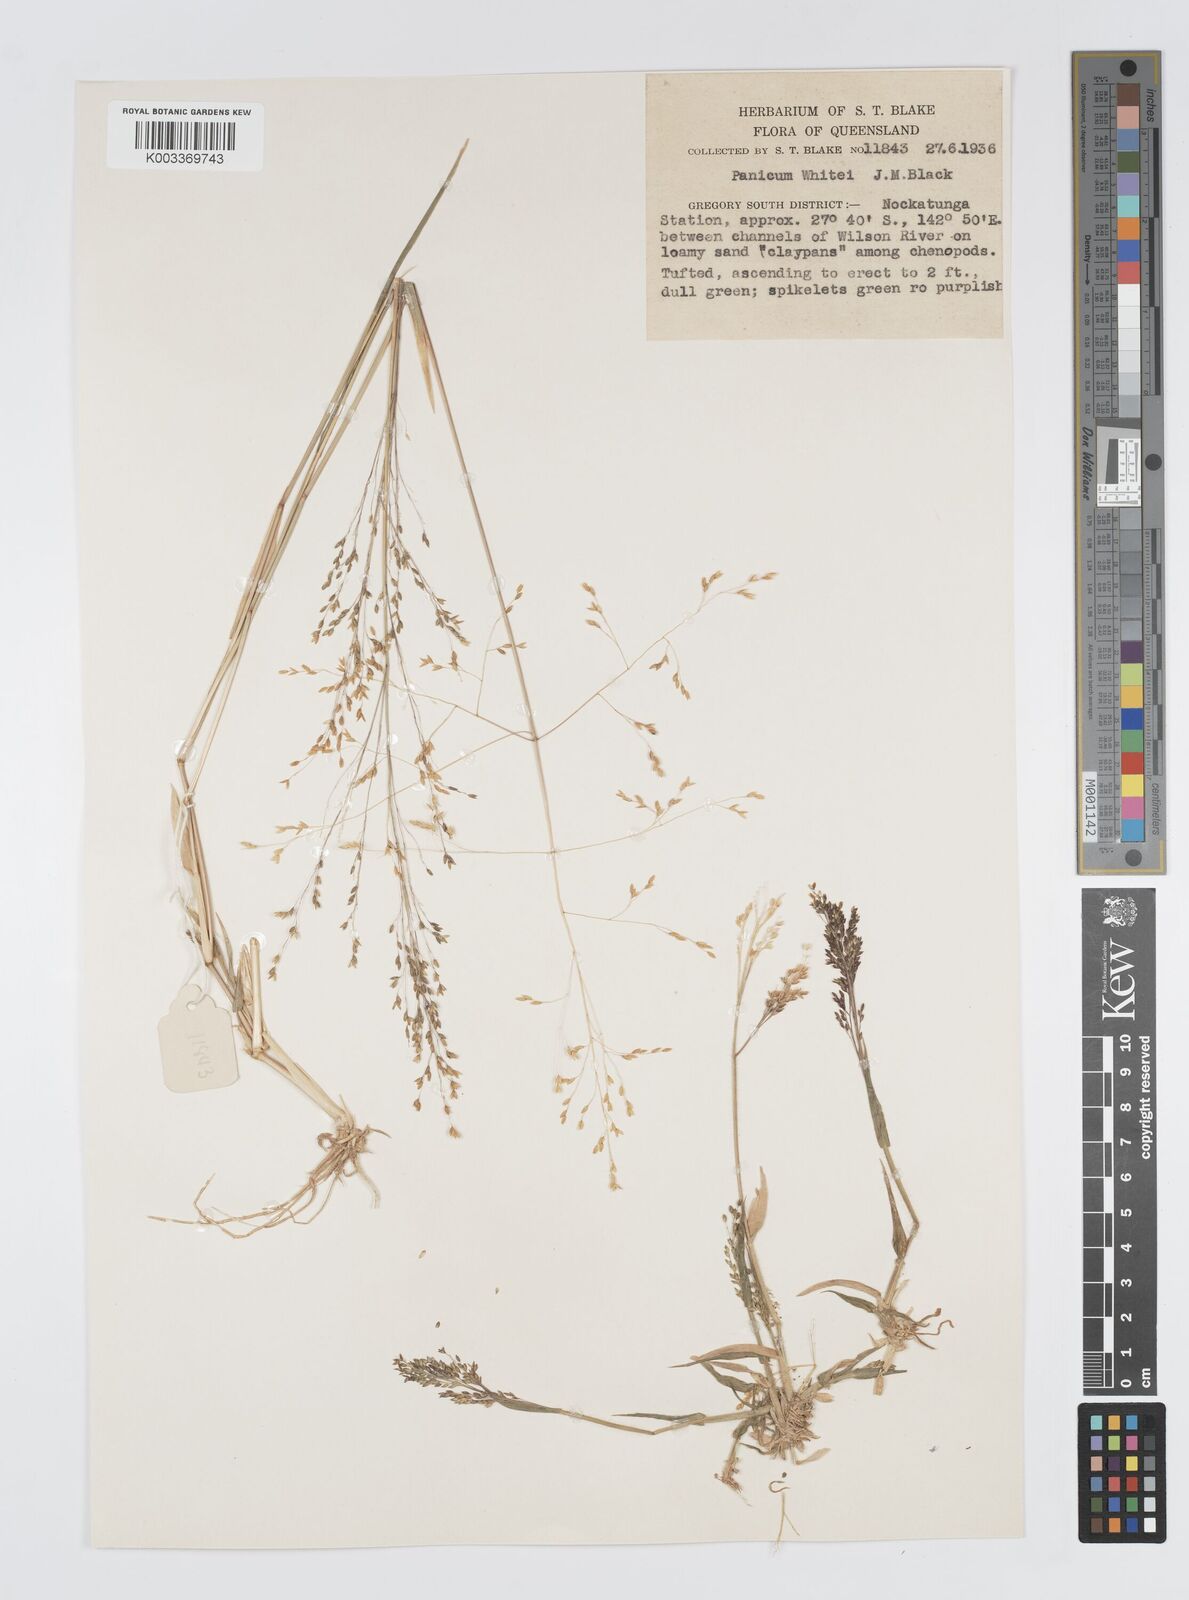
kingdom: Plantae
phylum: Tracheophyta
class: Liliopsida
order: Poales
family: Poaceae
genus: Panicum
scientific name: Panicum laevinode
